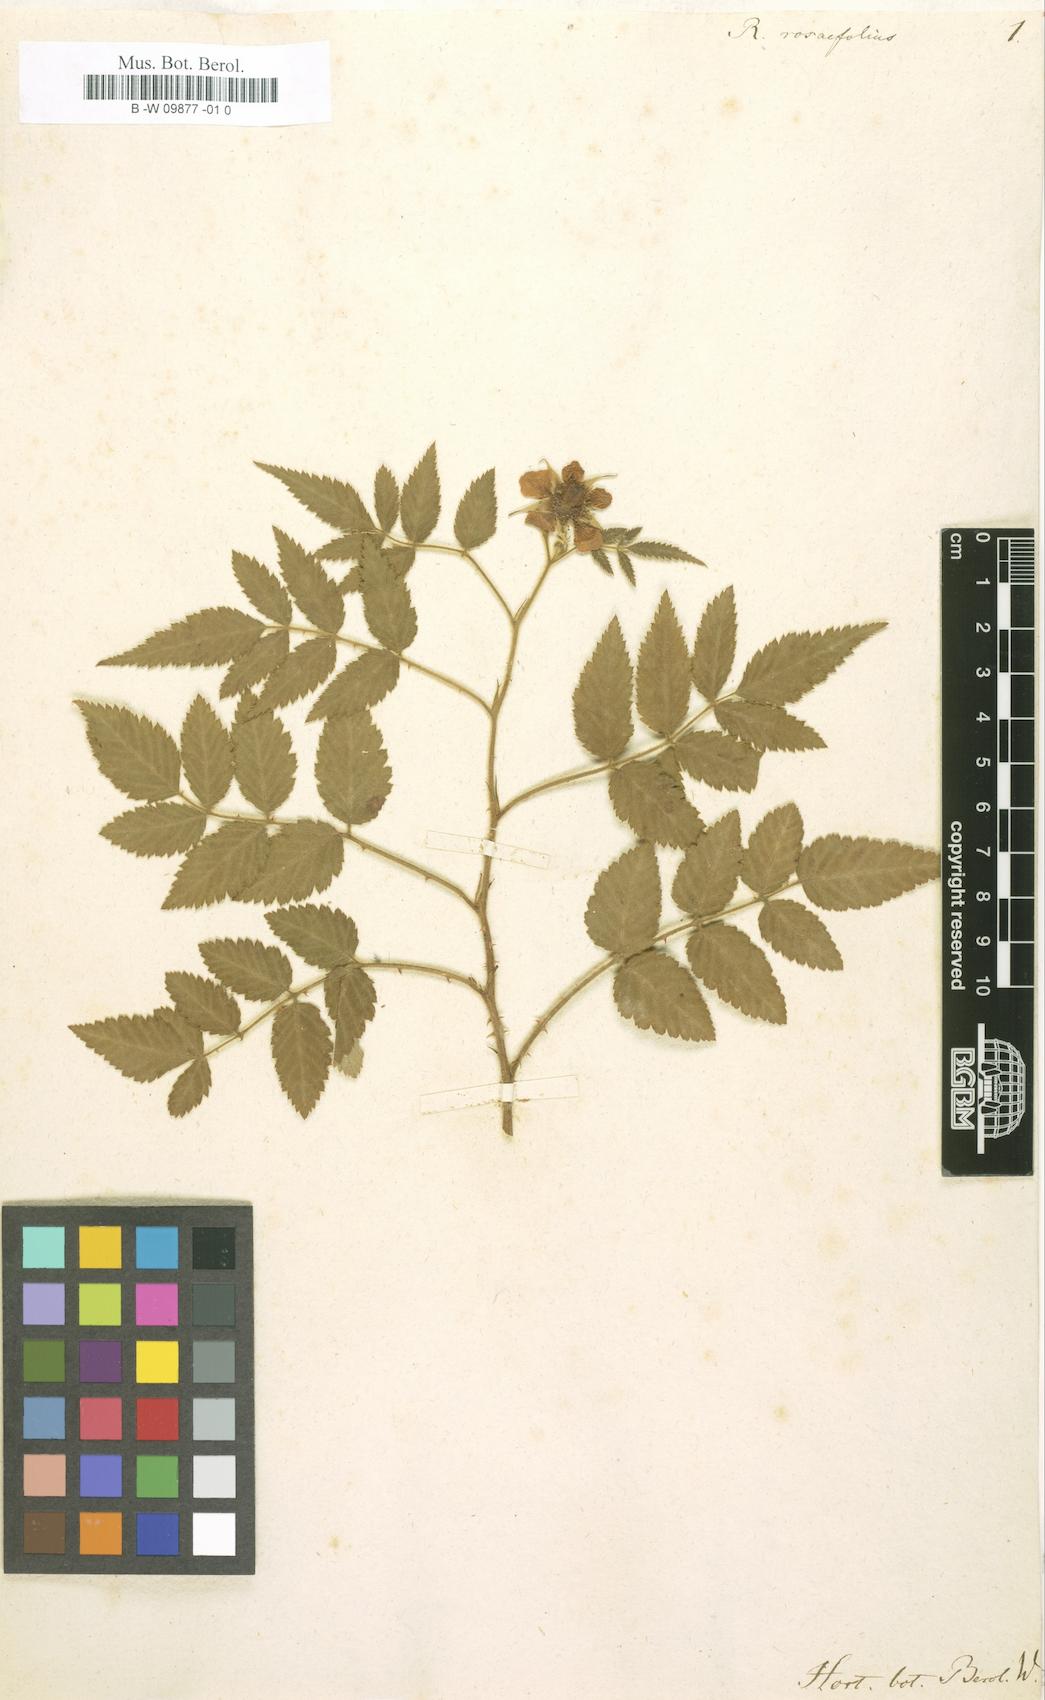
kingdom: Plantae
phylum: Tracheophyta
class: Magnoliopsida
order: Rosales
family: Rosaceae
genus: Rubus
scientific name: Rubus rosifolius
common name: Roseleaf raspberry
